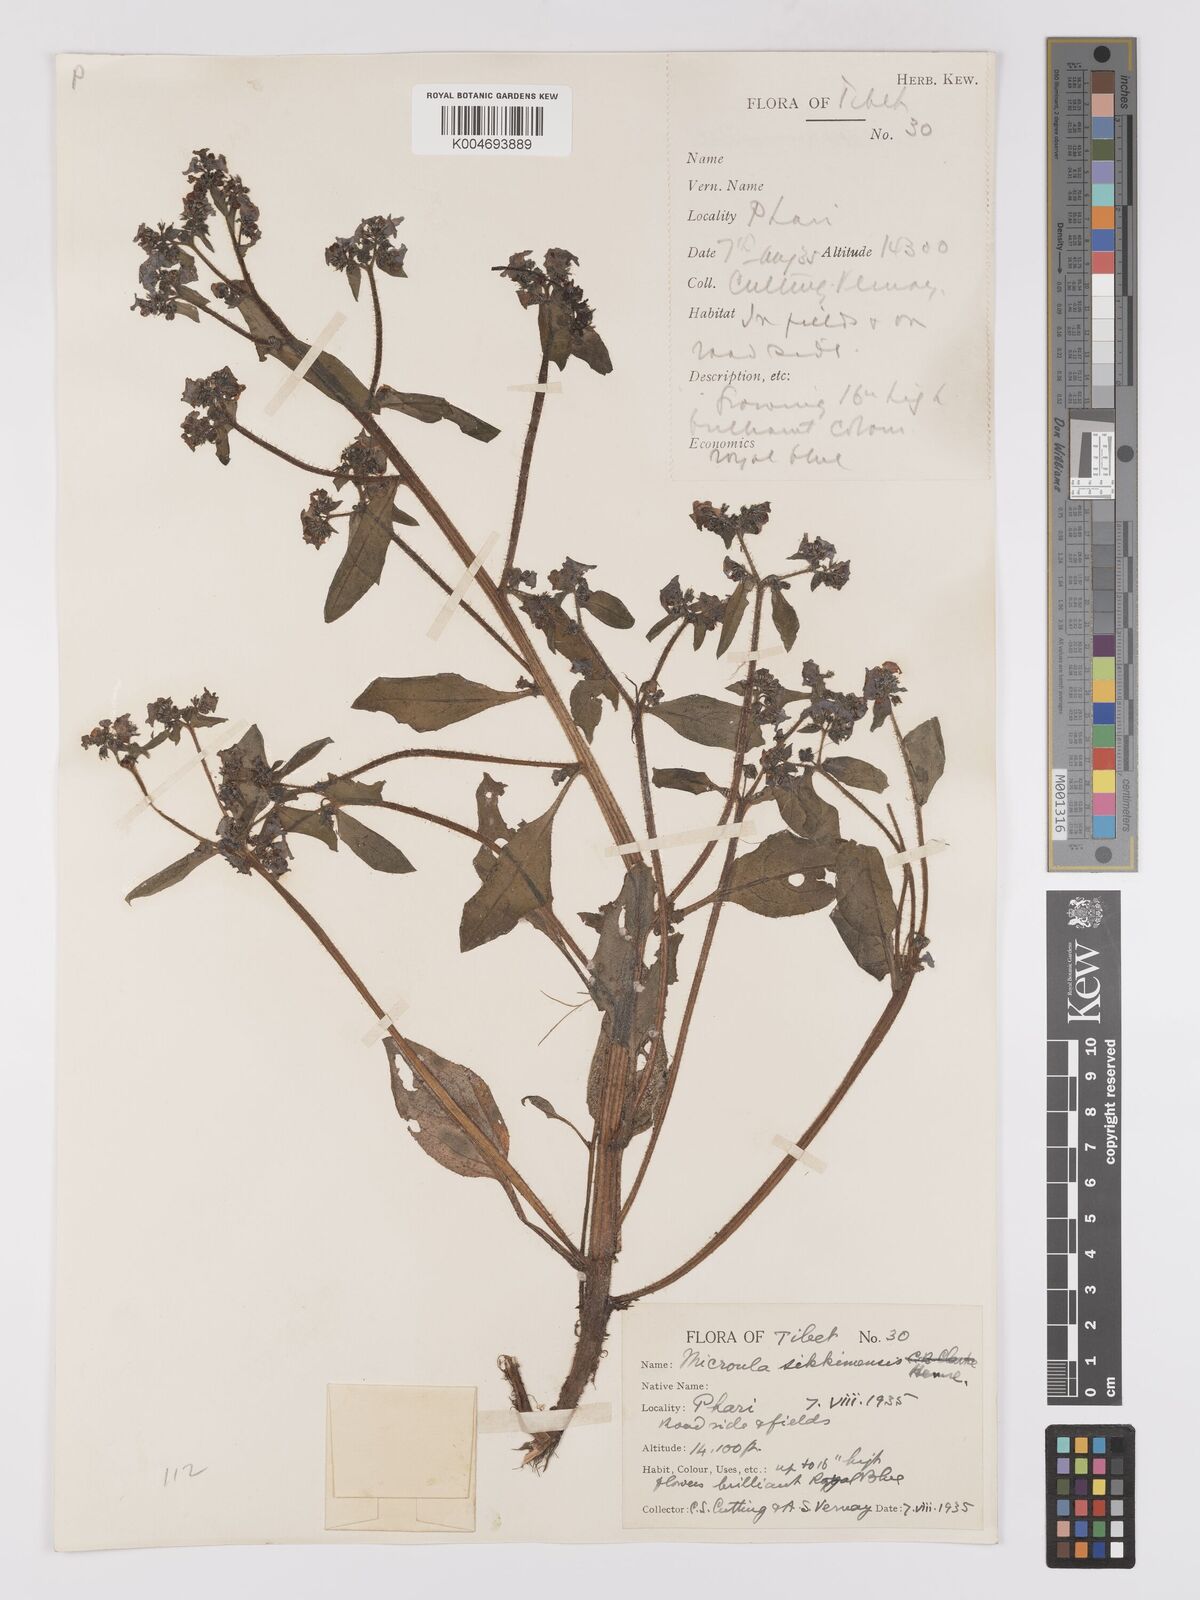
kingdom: Plantae
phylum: Tracheophyta
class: Magnoliopsida
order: Boraginales
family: Boraginaceae
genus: Microula
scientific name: Microula sikkimensis
